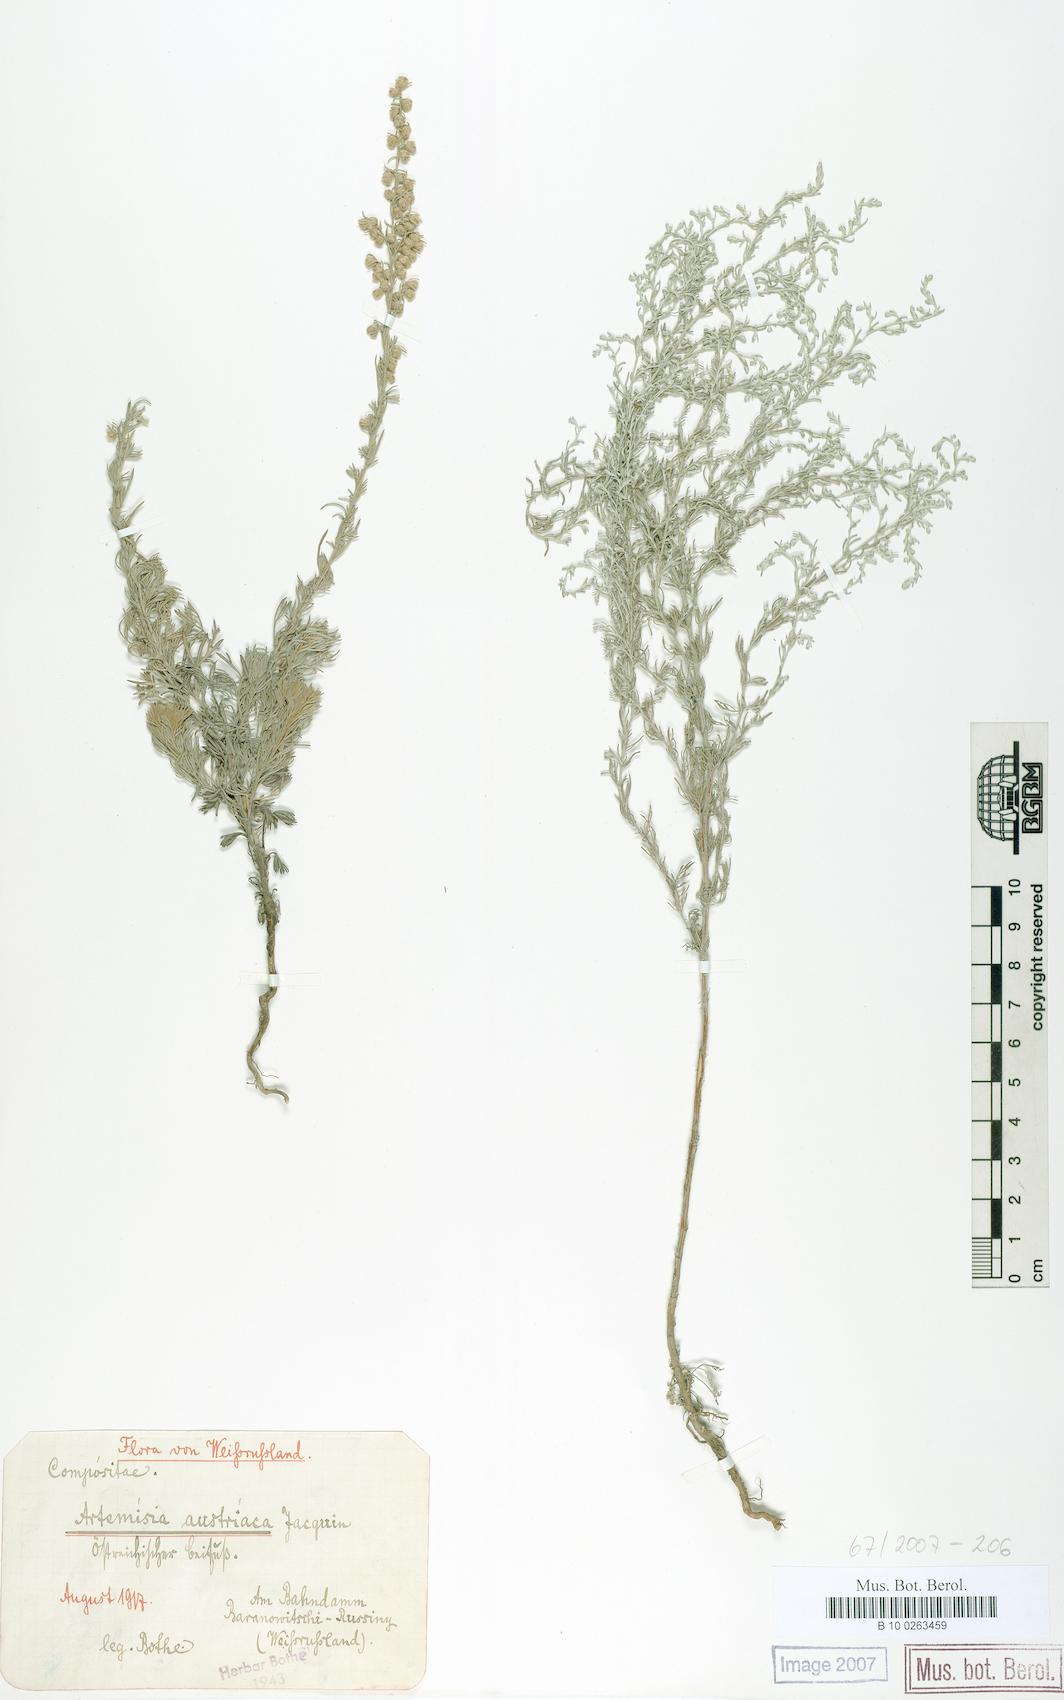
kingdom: Plantae
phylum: Tracheophyta
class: Magnoliopsida
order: Asterales
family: Asteraceae
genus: Artemisia
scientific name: Artemisia austriaca
